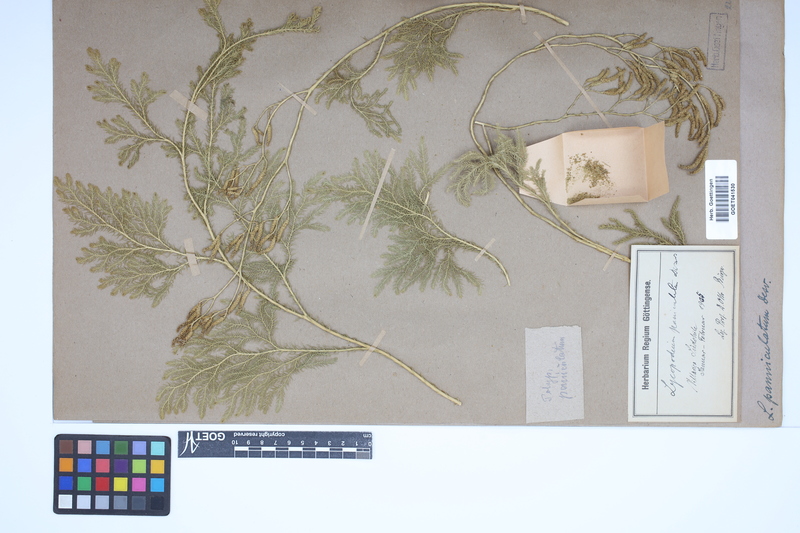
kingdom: Plantae
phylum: Tracheophyta
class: Lycopodiopsida
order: Lycopodiales
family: Lycopodiaceae
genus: Austrolycopodium
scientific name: Austrolycopodium paniculatum
